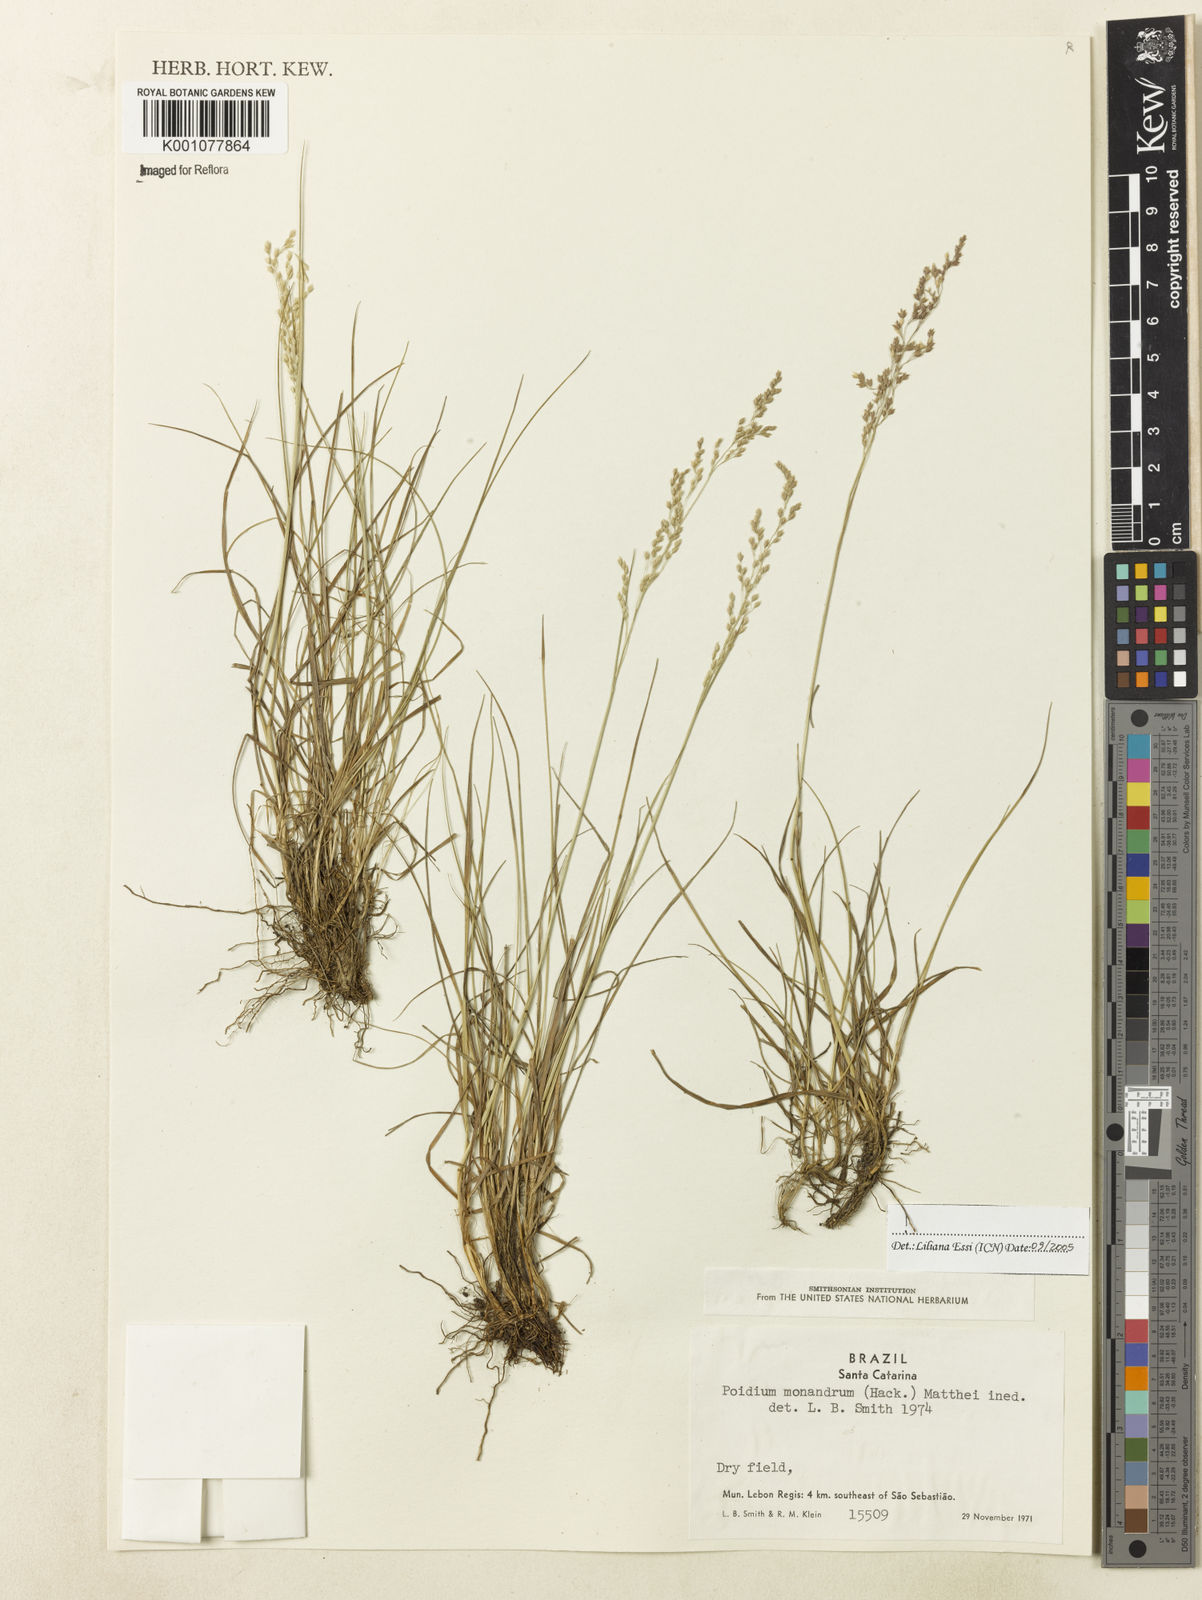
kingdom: Plantae
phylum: Tracheophyta
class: Liliopsida
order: Poales
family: Poaceae
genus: Poidium
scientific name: Poidium monandrum
